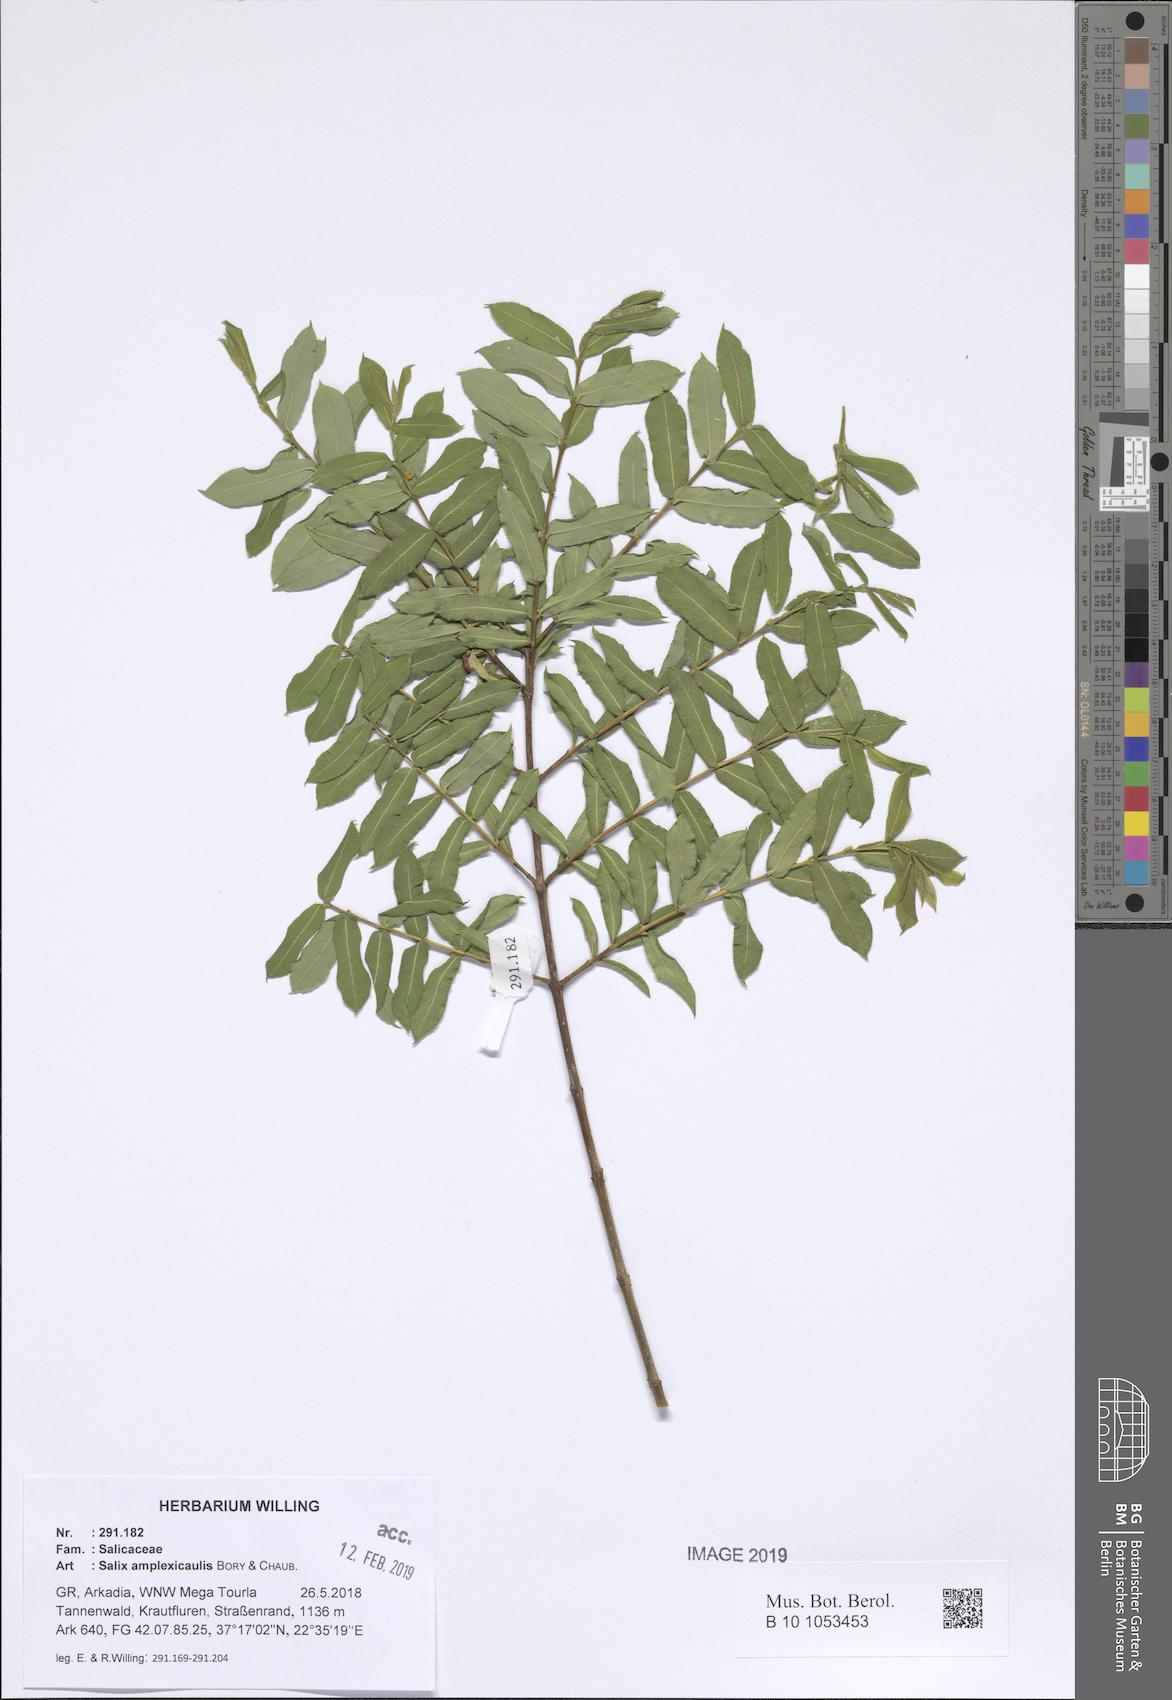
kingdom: Plantae
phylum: Tracheophyta
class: Magnoliopsida
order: Malpighiales
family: Salicaceae
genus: Salix
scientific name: Salix amplexicaulis
